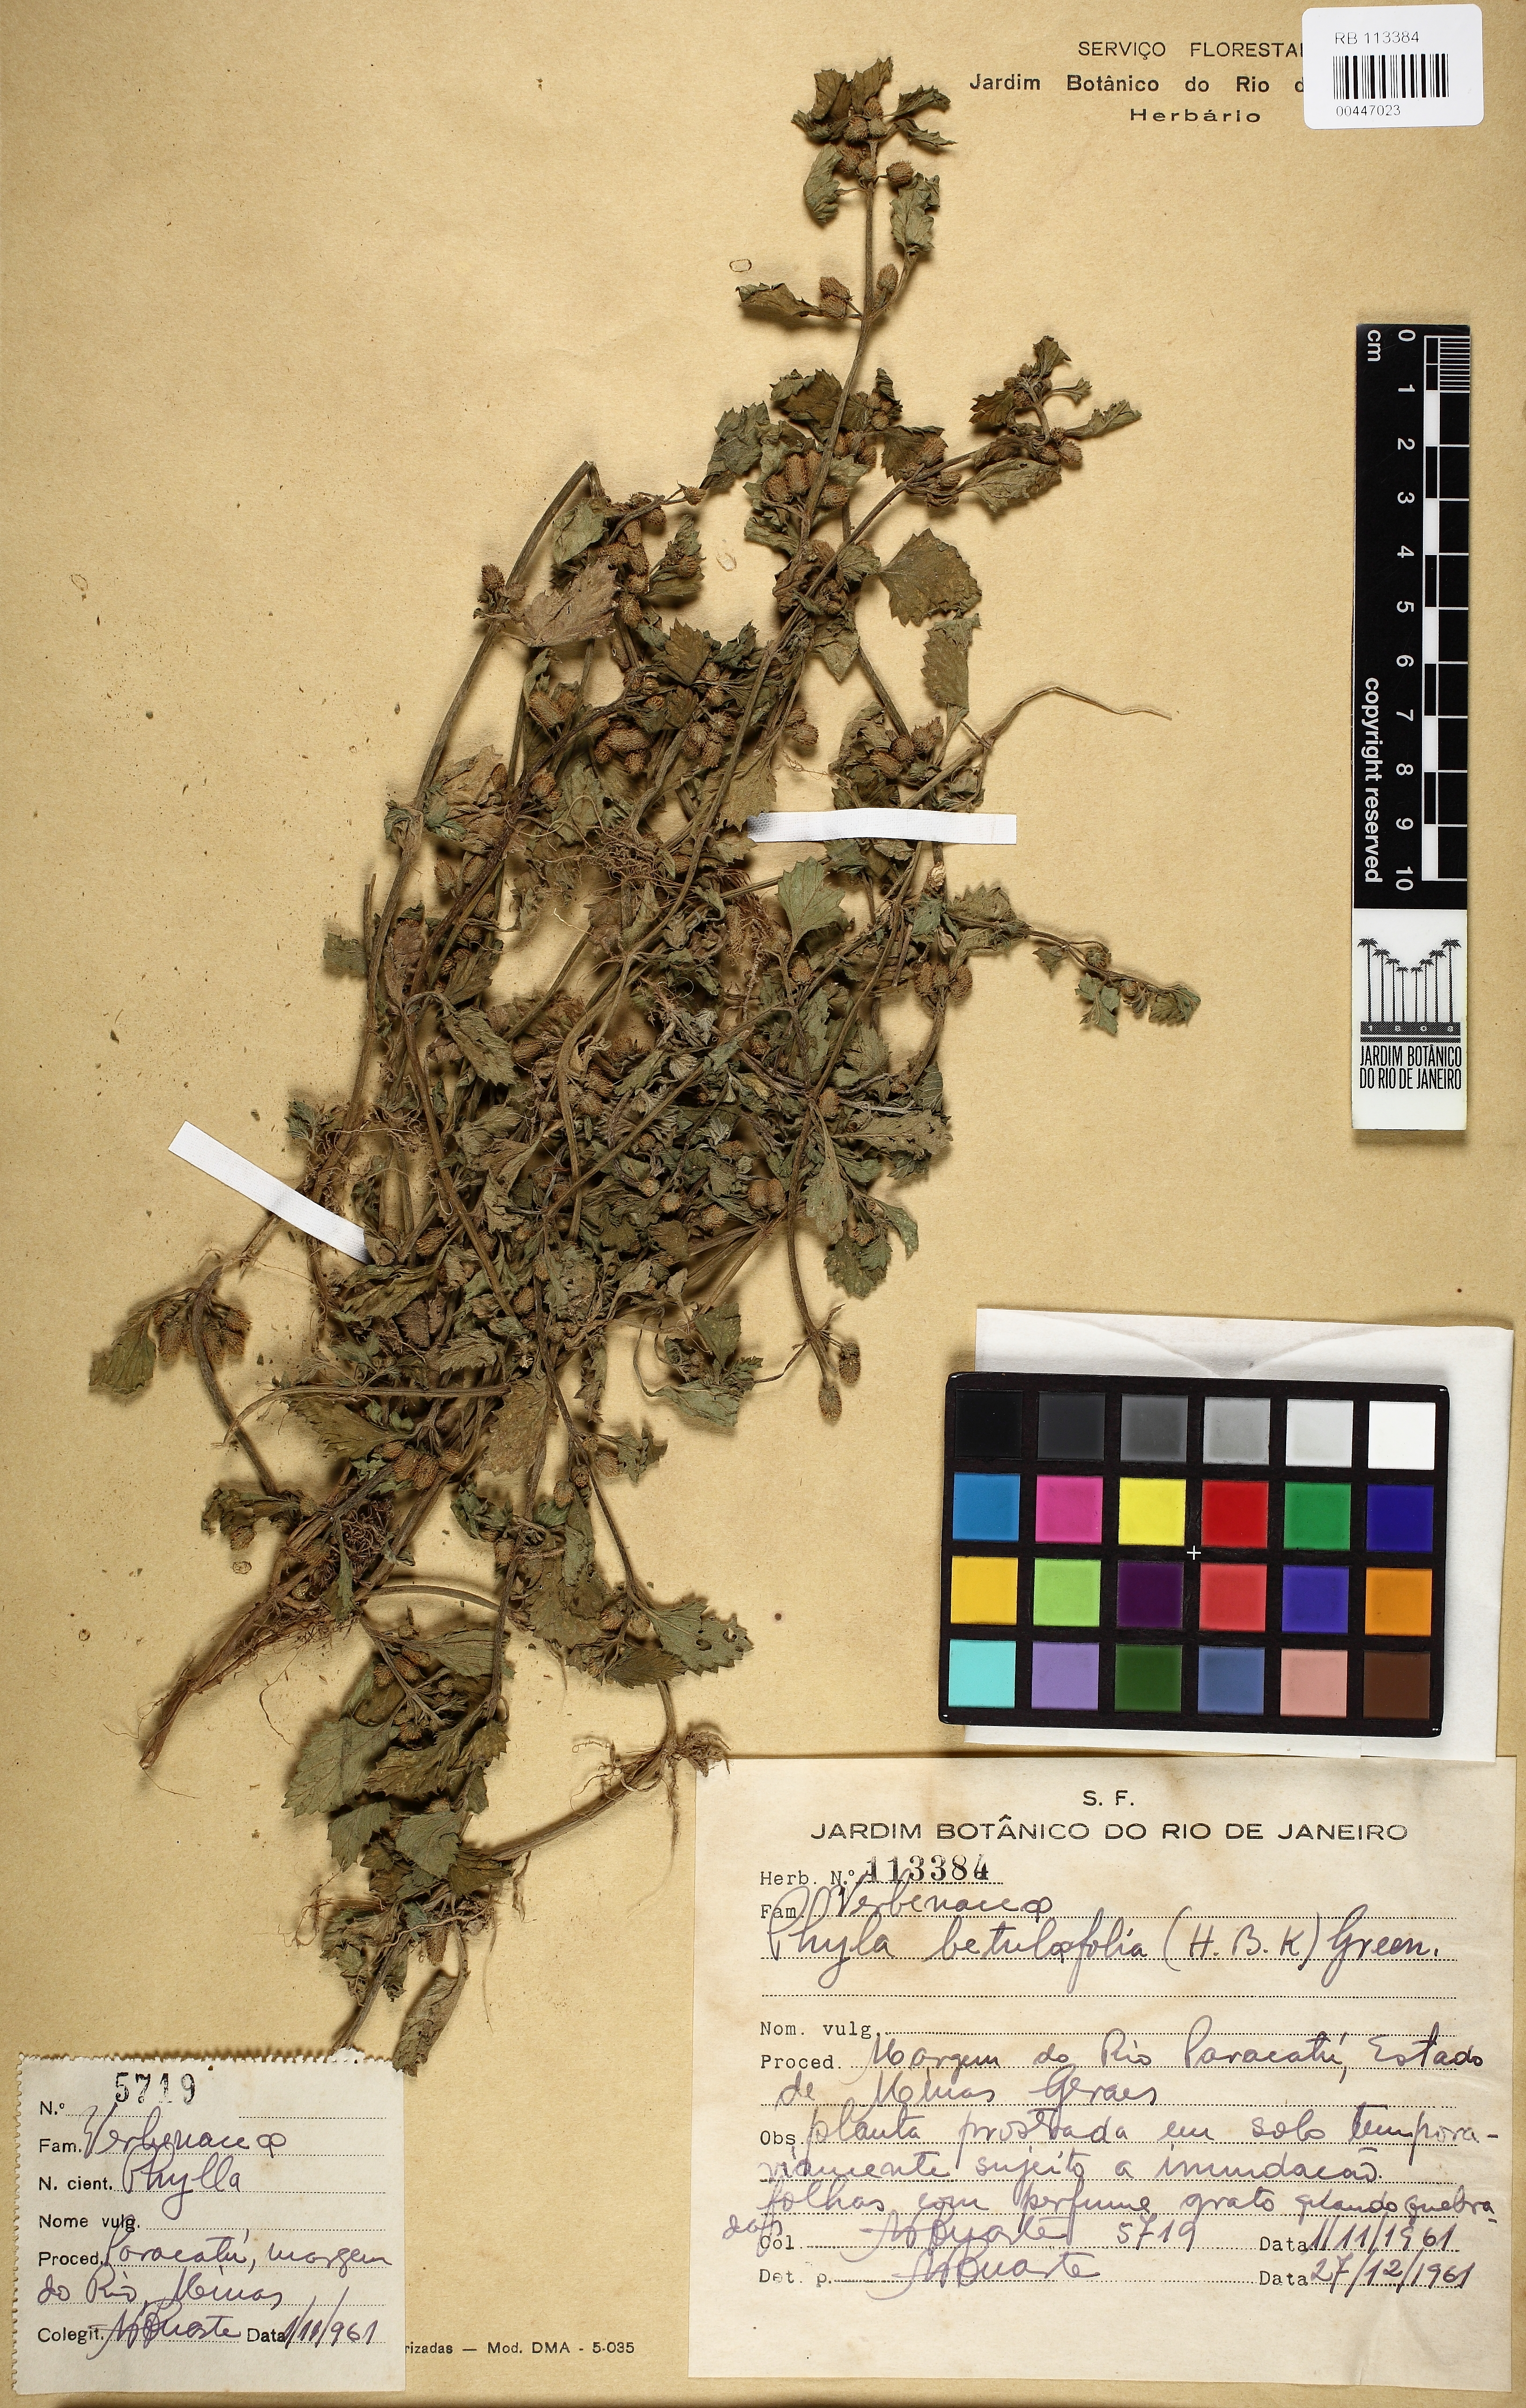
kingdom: Plantae
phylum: Tracheophyta
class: Magnoliopsida
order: Lamiales
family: Verbenaceae
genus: Phyla
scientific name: Phyla betulifolia
